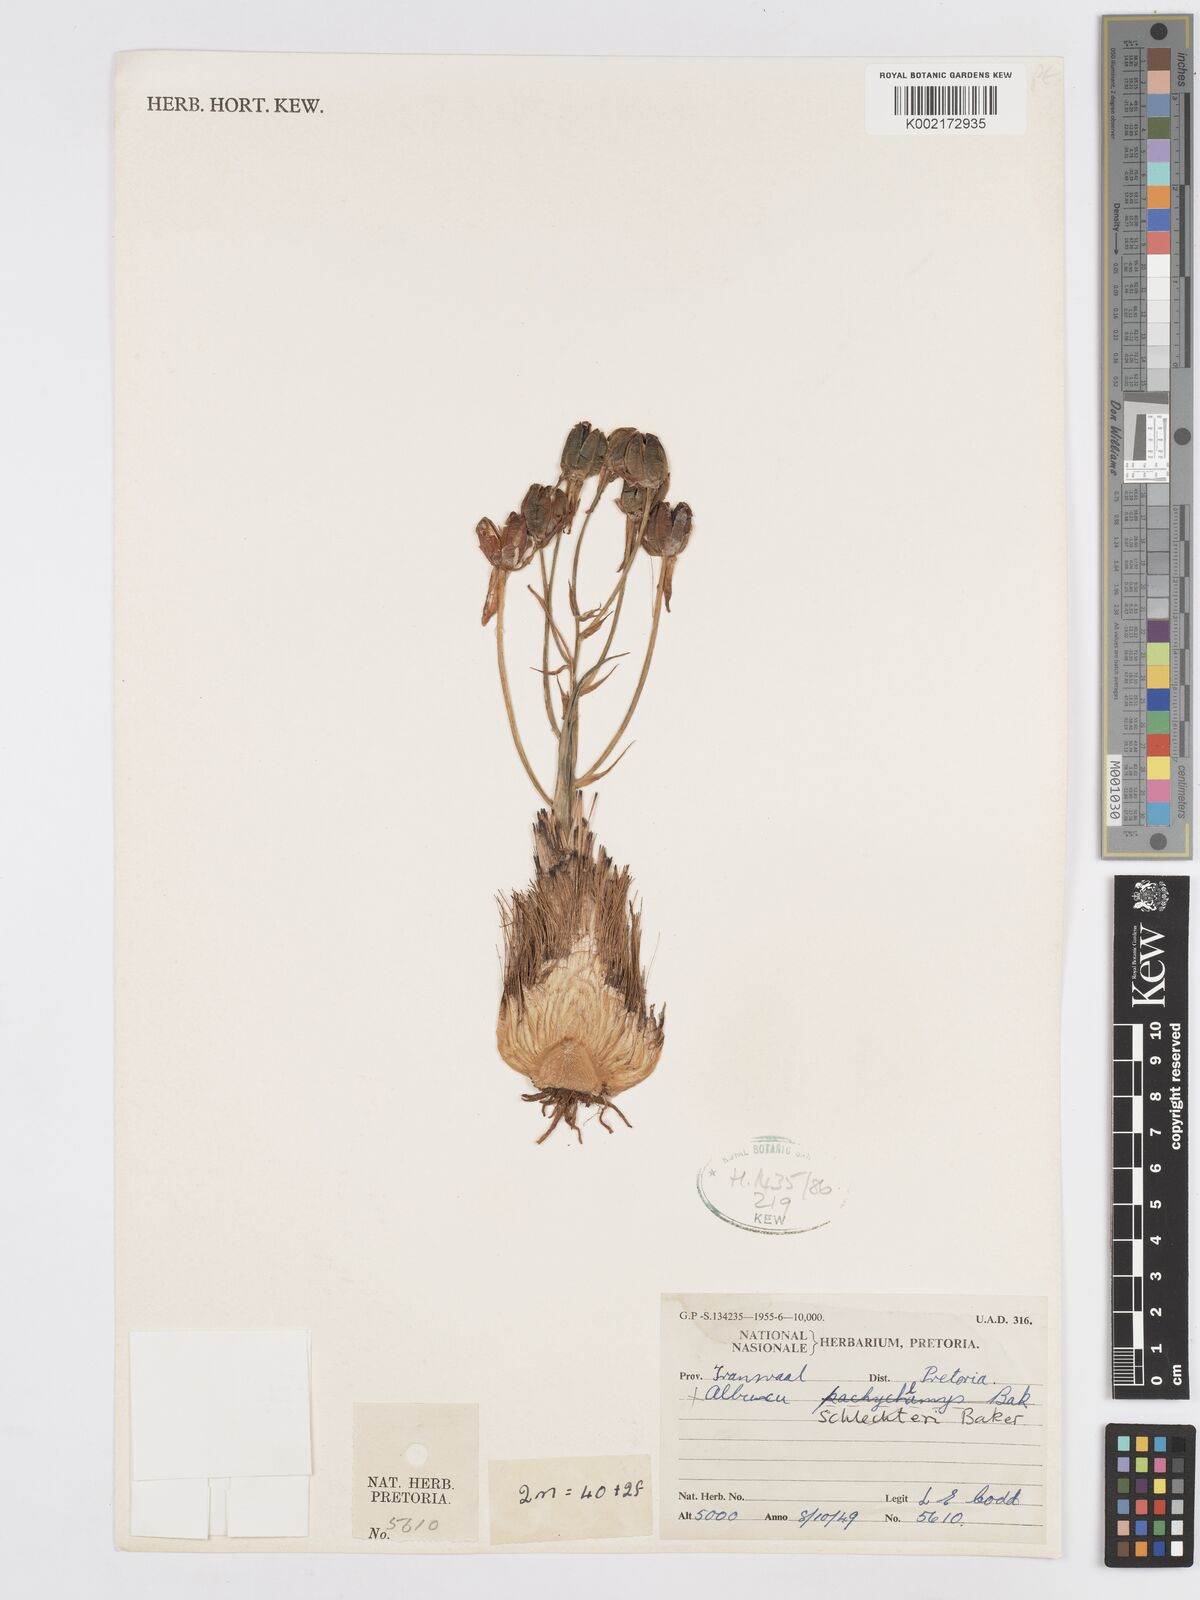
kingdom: Plantae
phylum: Tracheophyta
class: Liliopsida
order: Asparagales
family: Asparagaceae
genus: Albuca
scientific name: Albuca setosa
